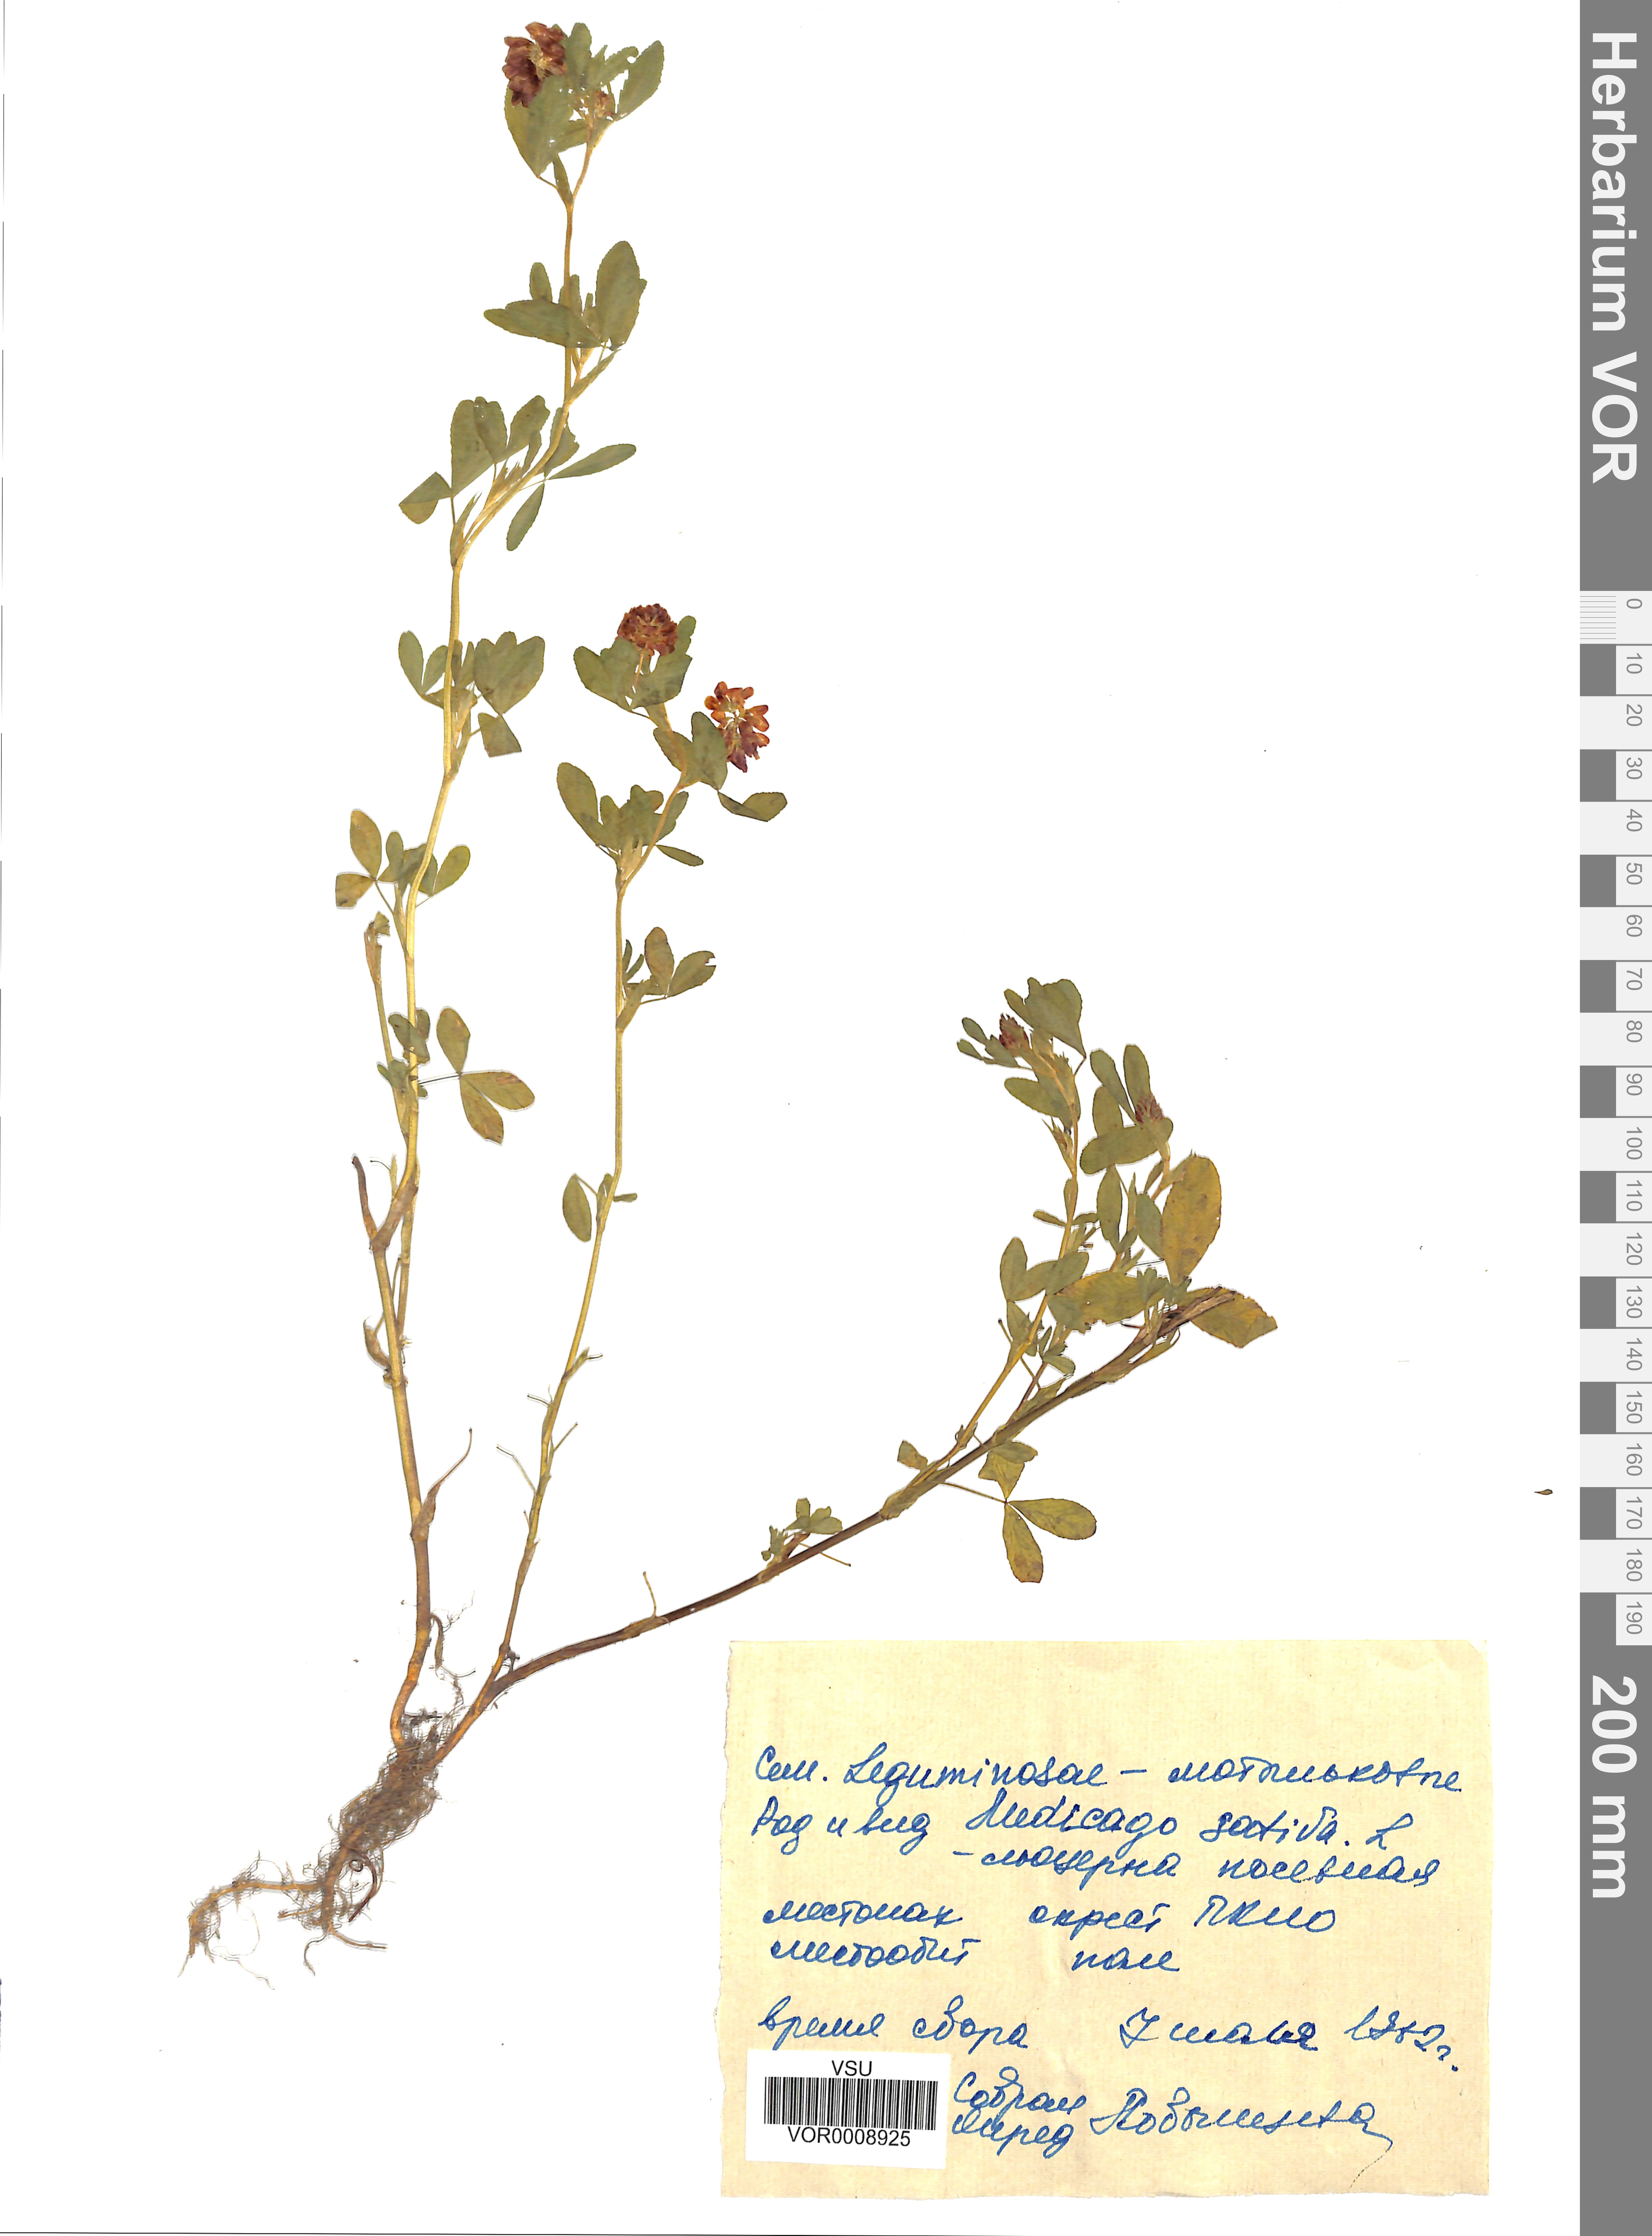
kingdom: Plantae
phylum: Tracheophyta
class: Magnoliopsida
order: Fabales
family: Fabaceae
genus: Medicago
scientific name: Medicago sativa
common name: Alfalfa
